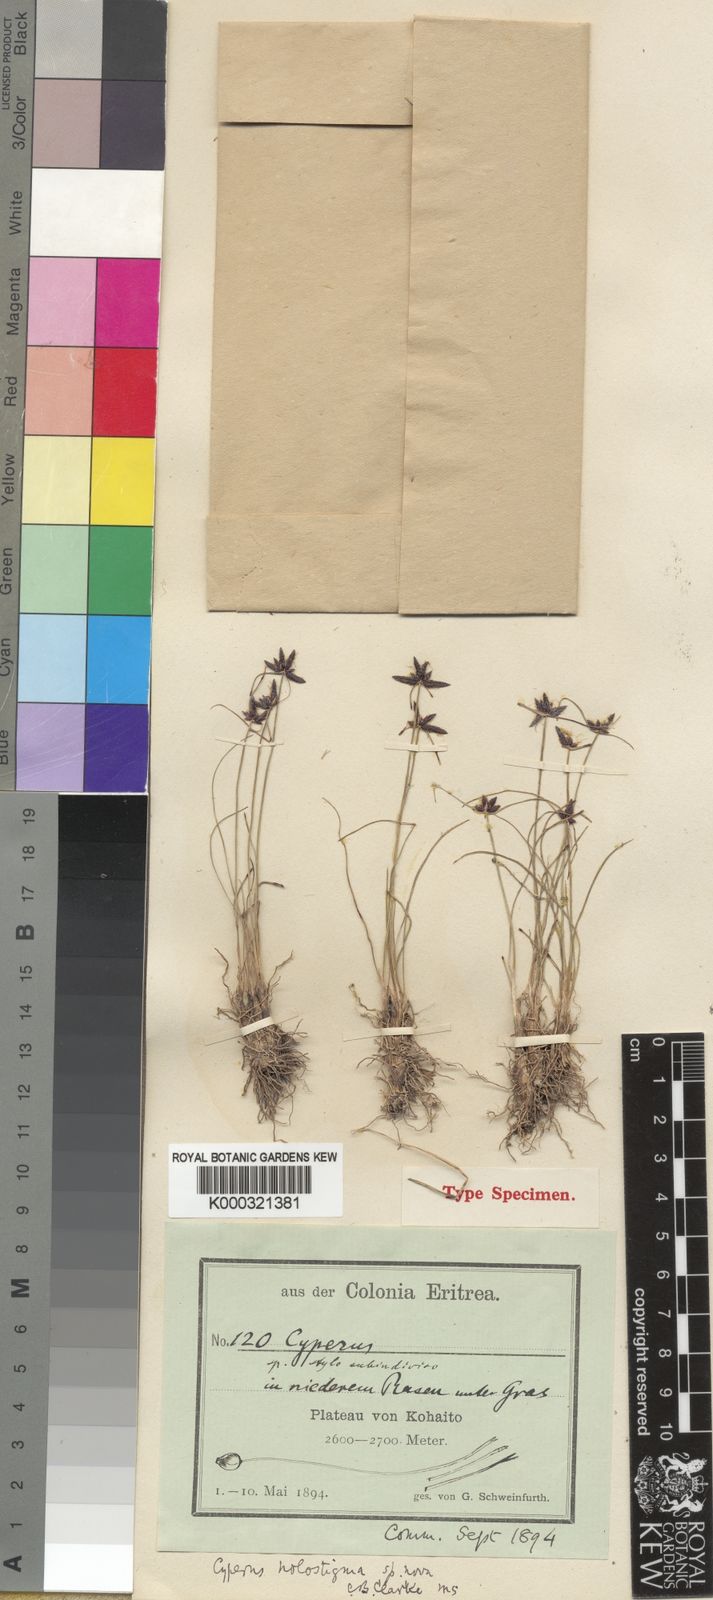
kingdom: Plantae
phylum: Tracheophyta
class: Liliopsida
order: Poales
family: Cyperaceae
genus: Cyperus
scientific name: Cyperus holostigma
